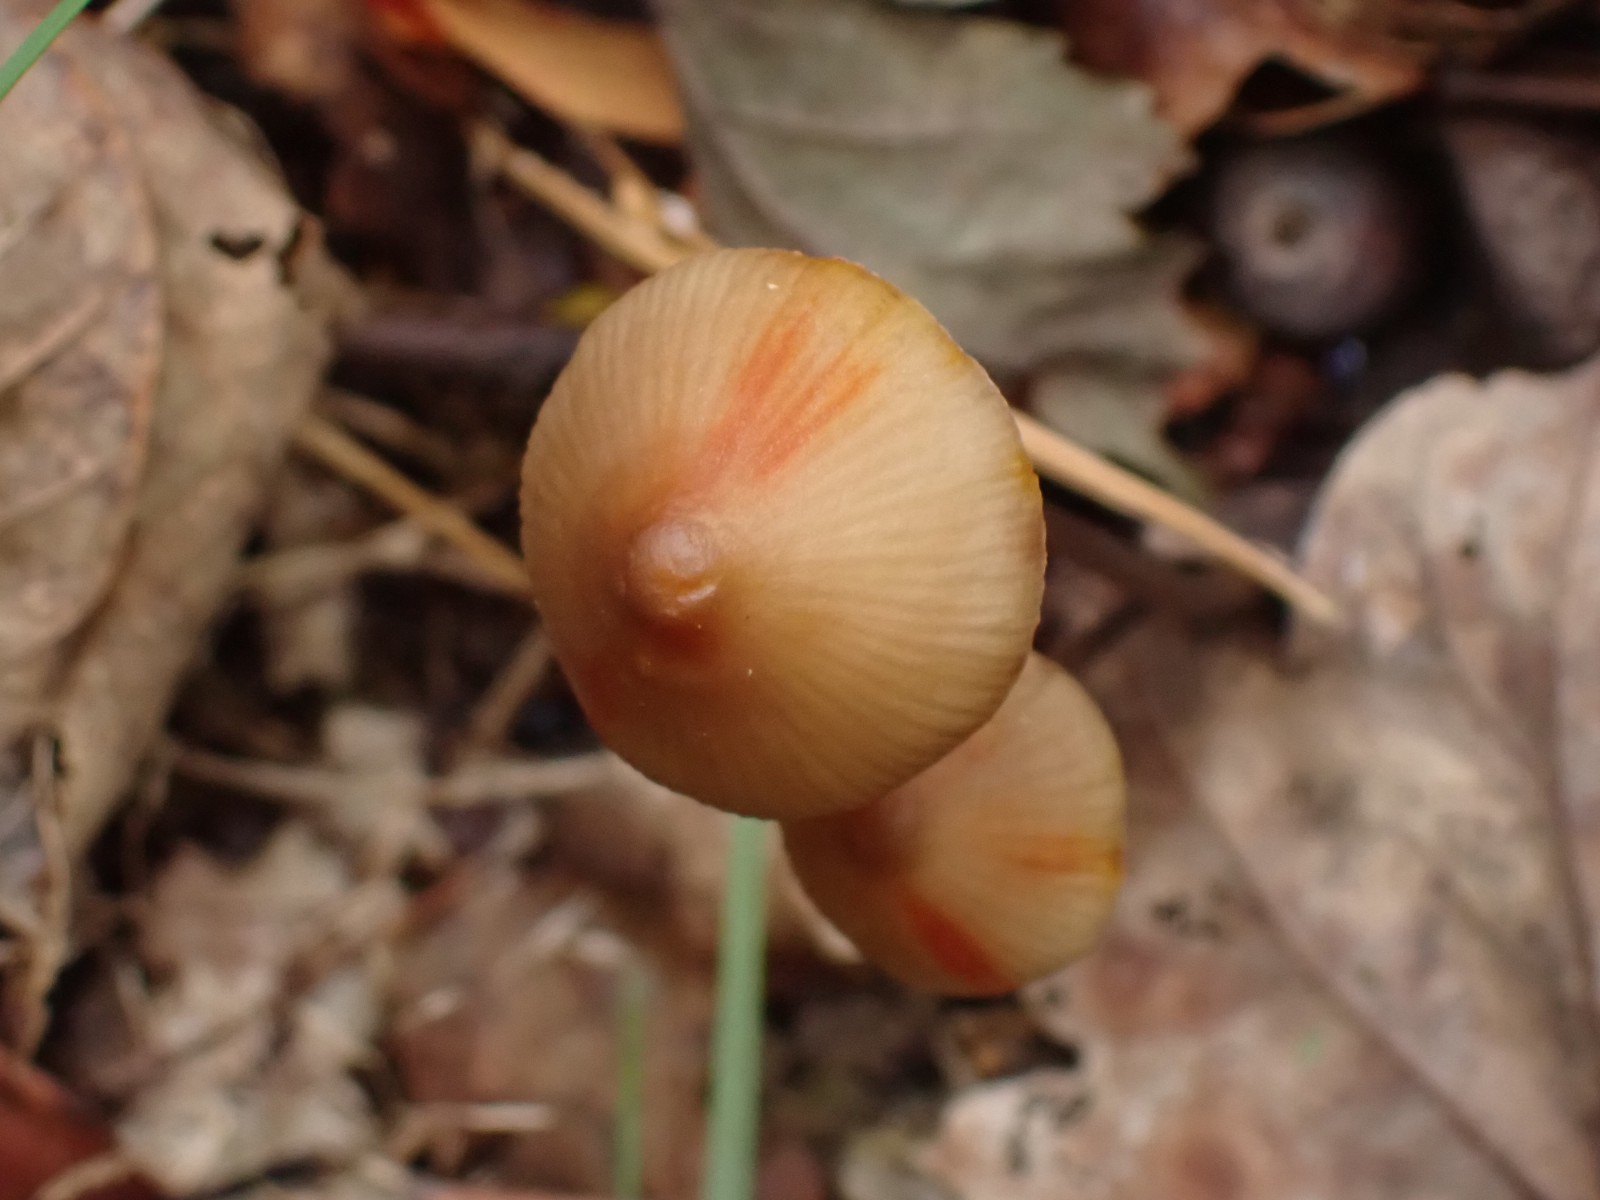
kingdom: Fungi
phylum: Basidiomycota
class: Agaricomycetes
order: Agaricales
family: Mycenaceae
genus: Mycena
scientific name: Mycena crocata
